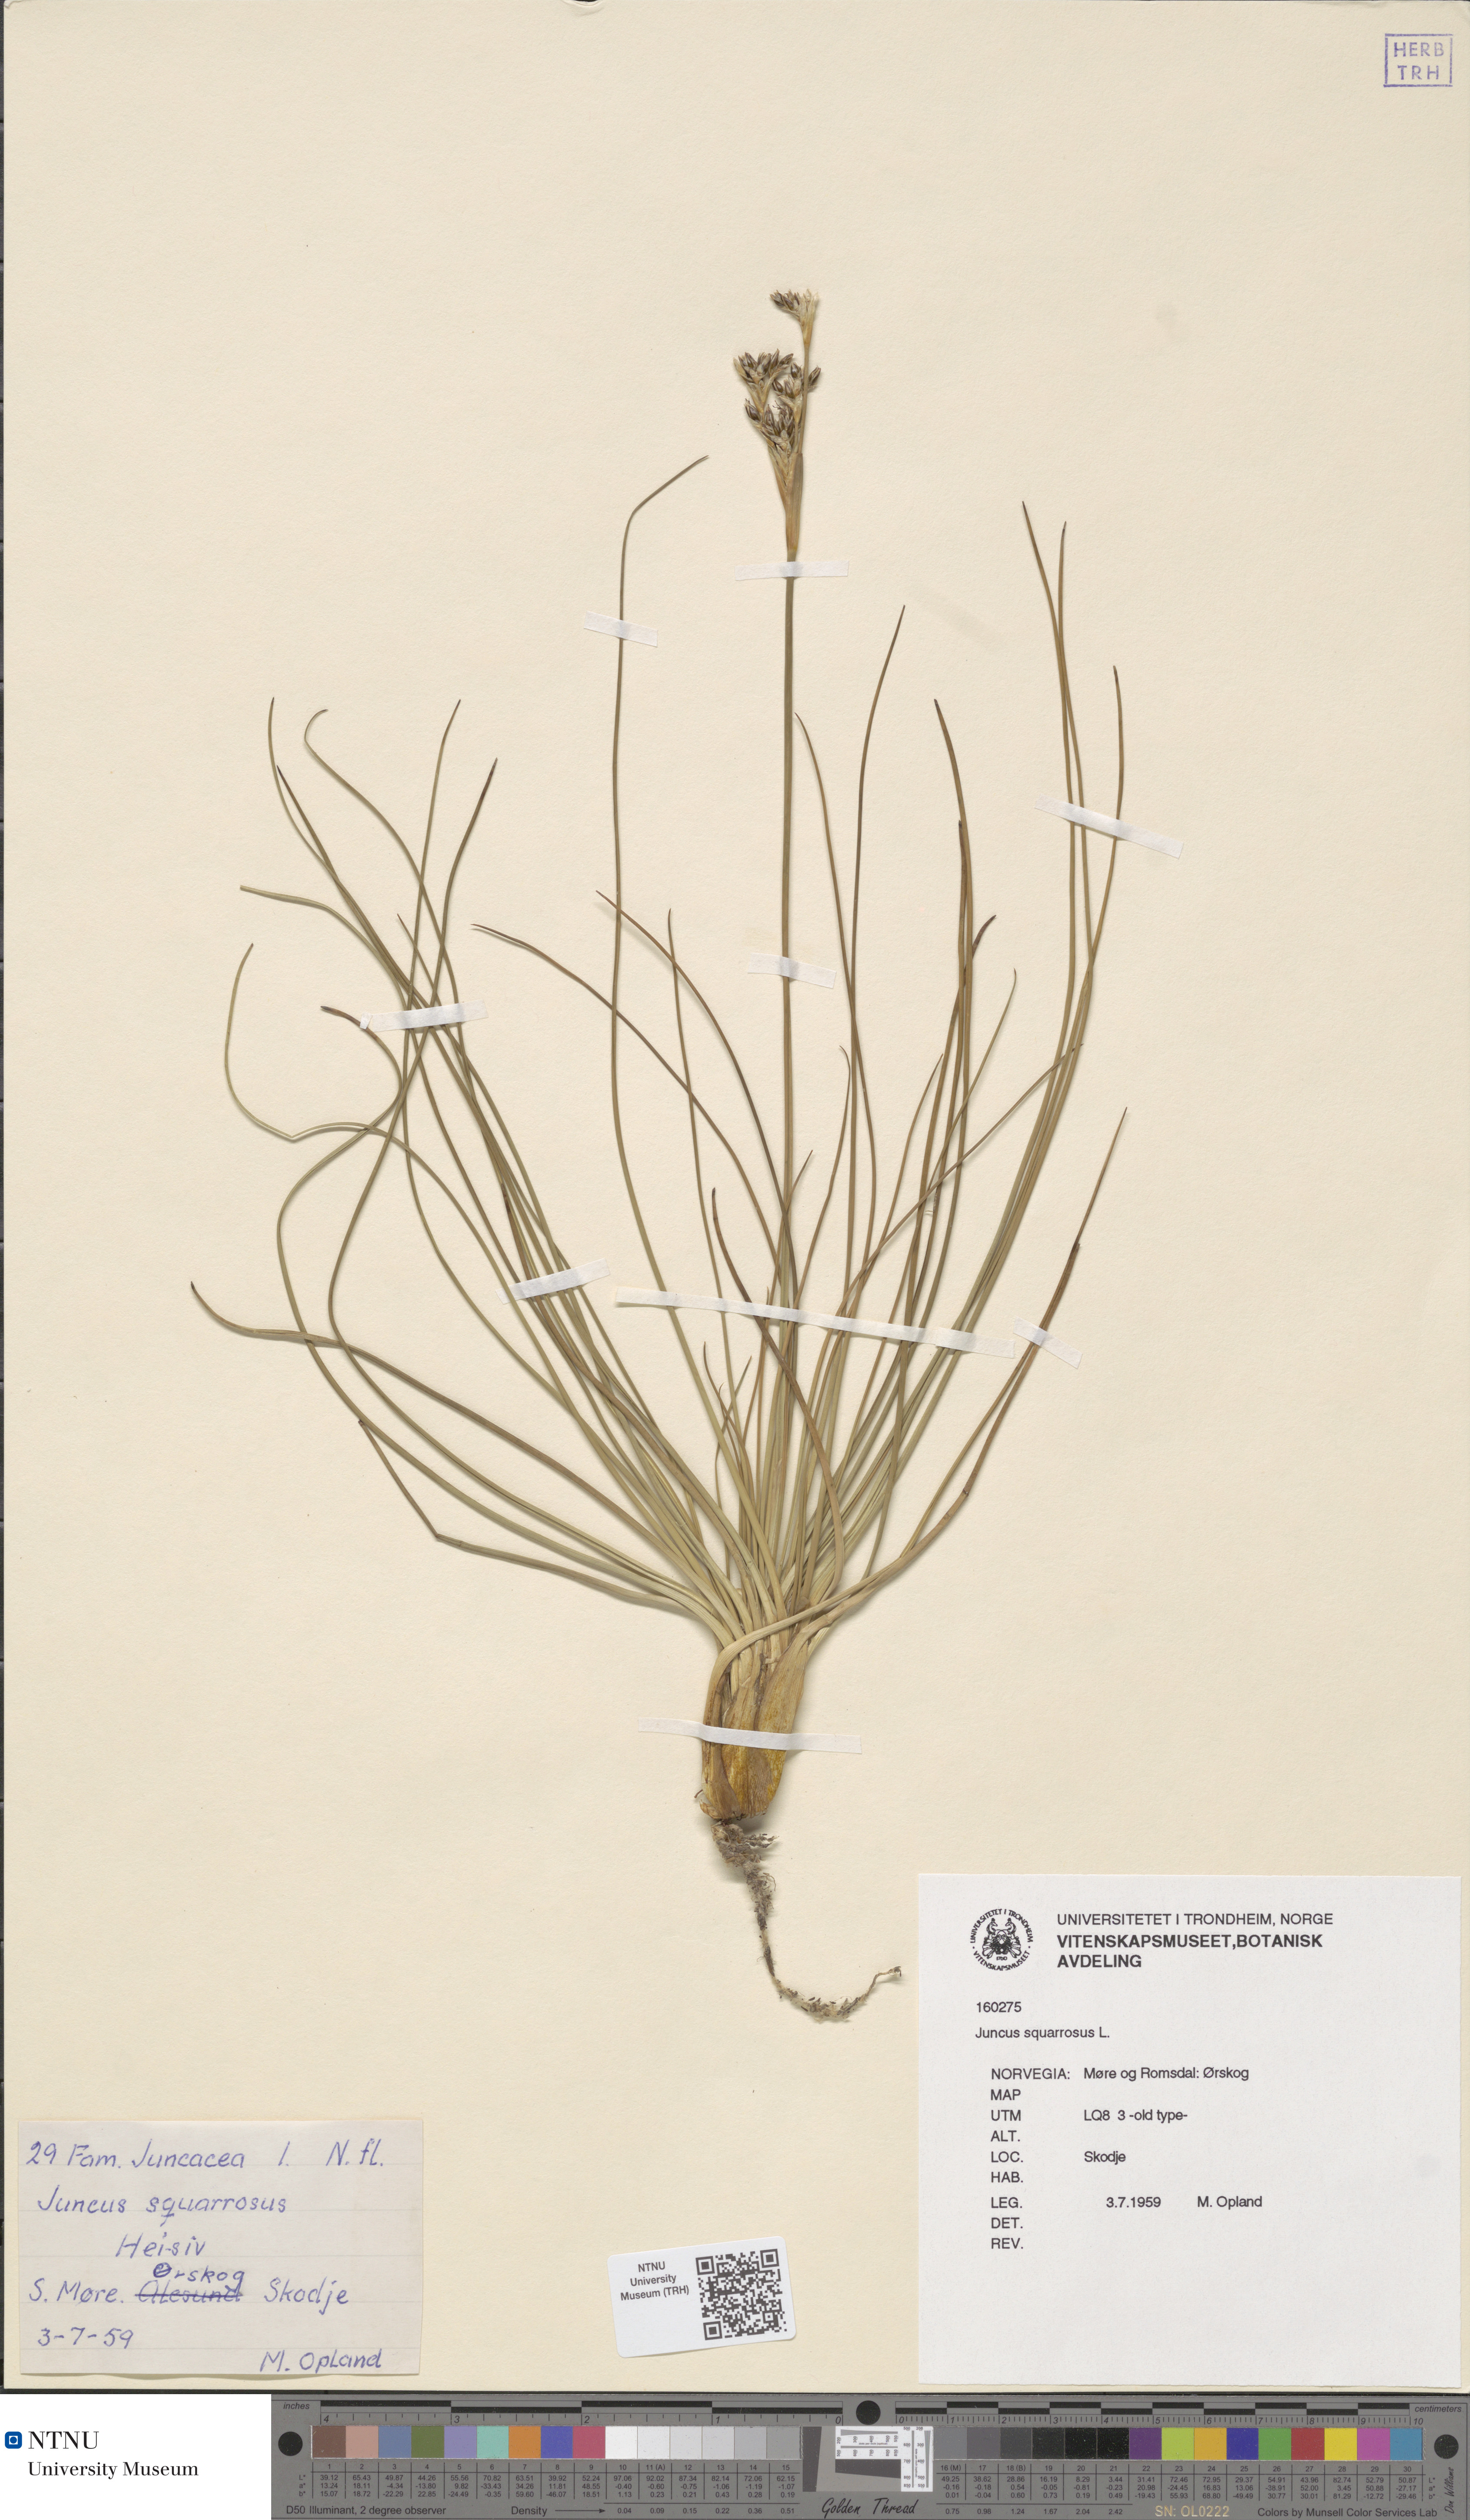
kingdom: Plantae
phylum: Tracheophyta
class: Liliopsida
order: Poales
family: Juncaceae
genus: Juncus
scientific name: Juncus squarrosus
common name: Heath rush
